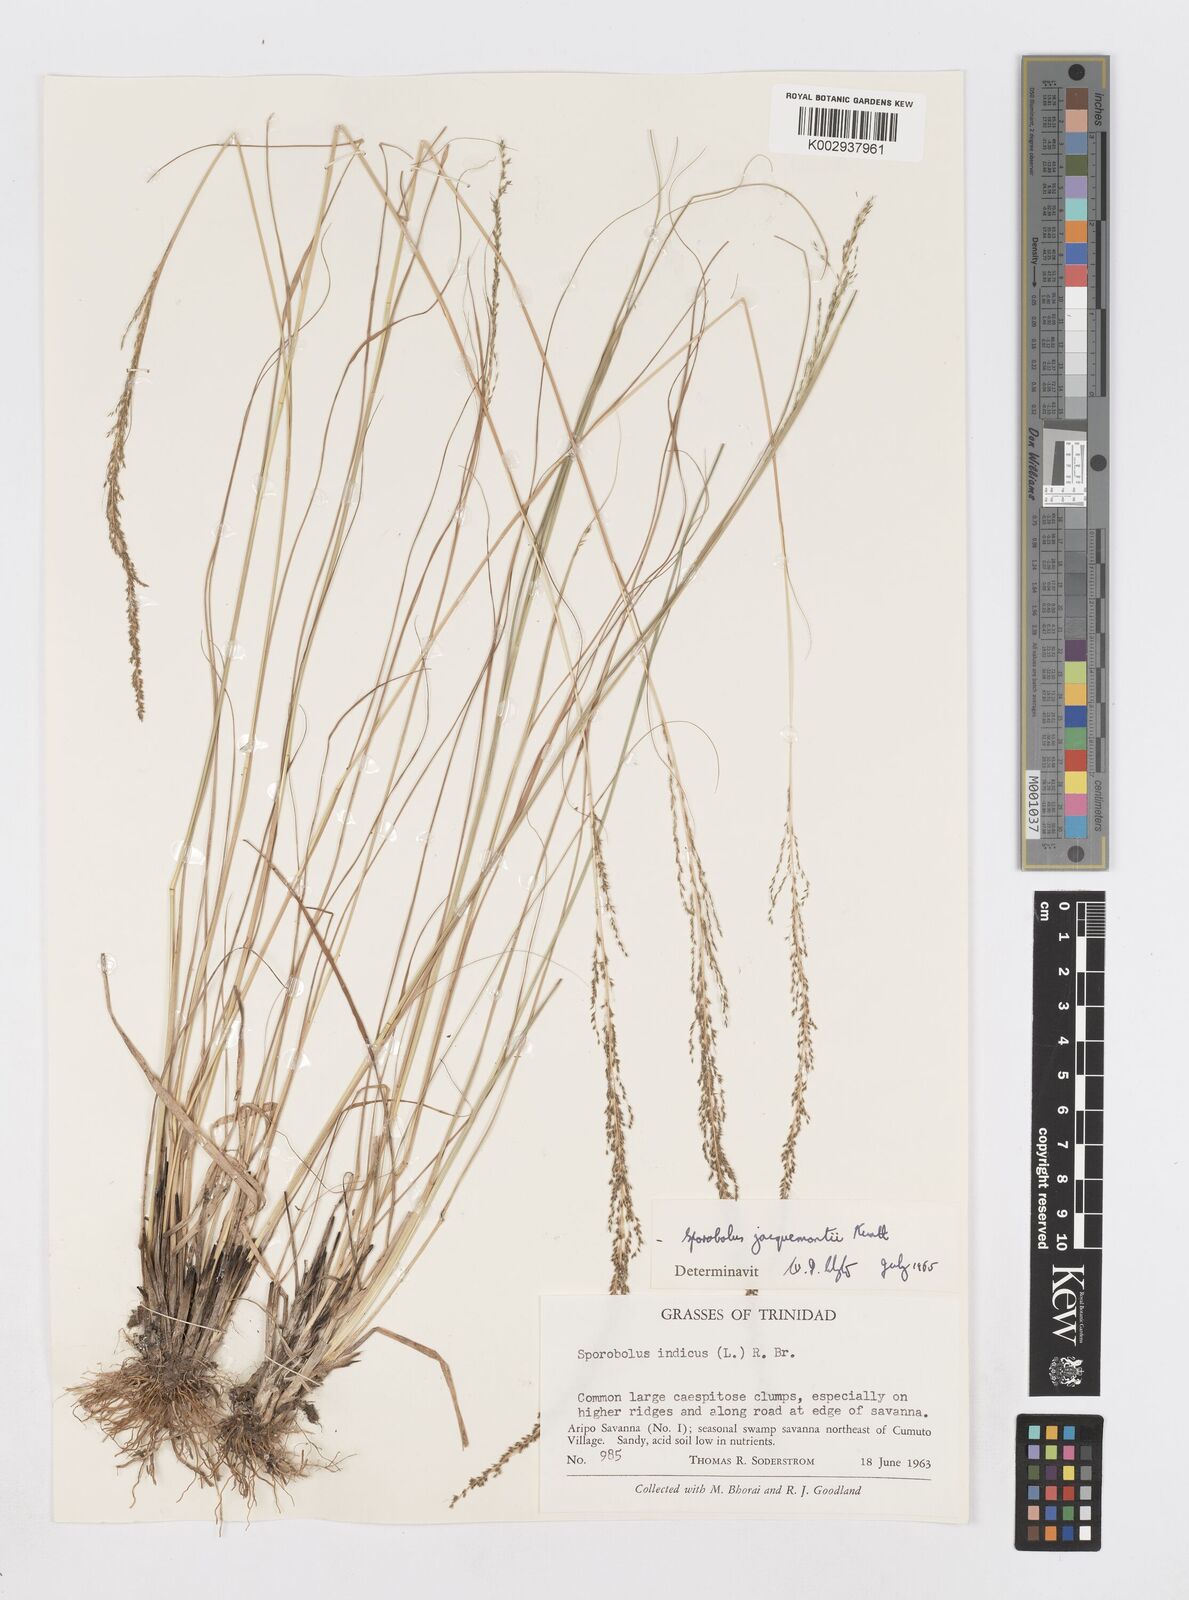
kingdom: Plantae
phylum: Tracheophyta
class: Liliopsida
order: Poales
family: Poaceae
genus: Sporobolus
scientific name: Sporobolus pyramidalis
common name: West indian dropseed
